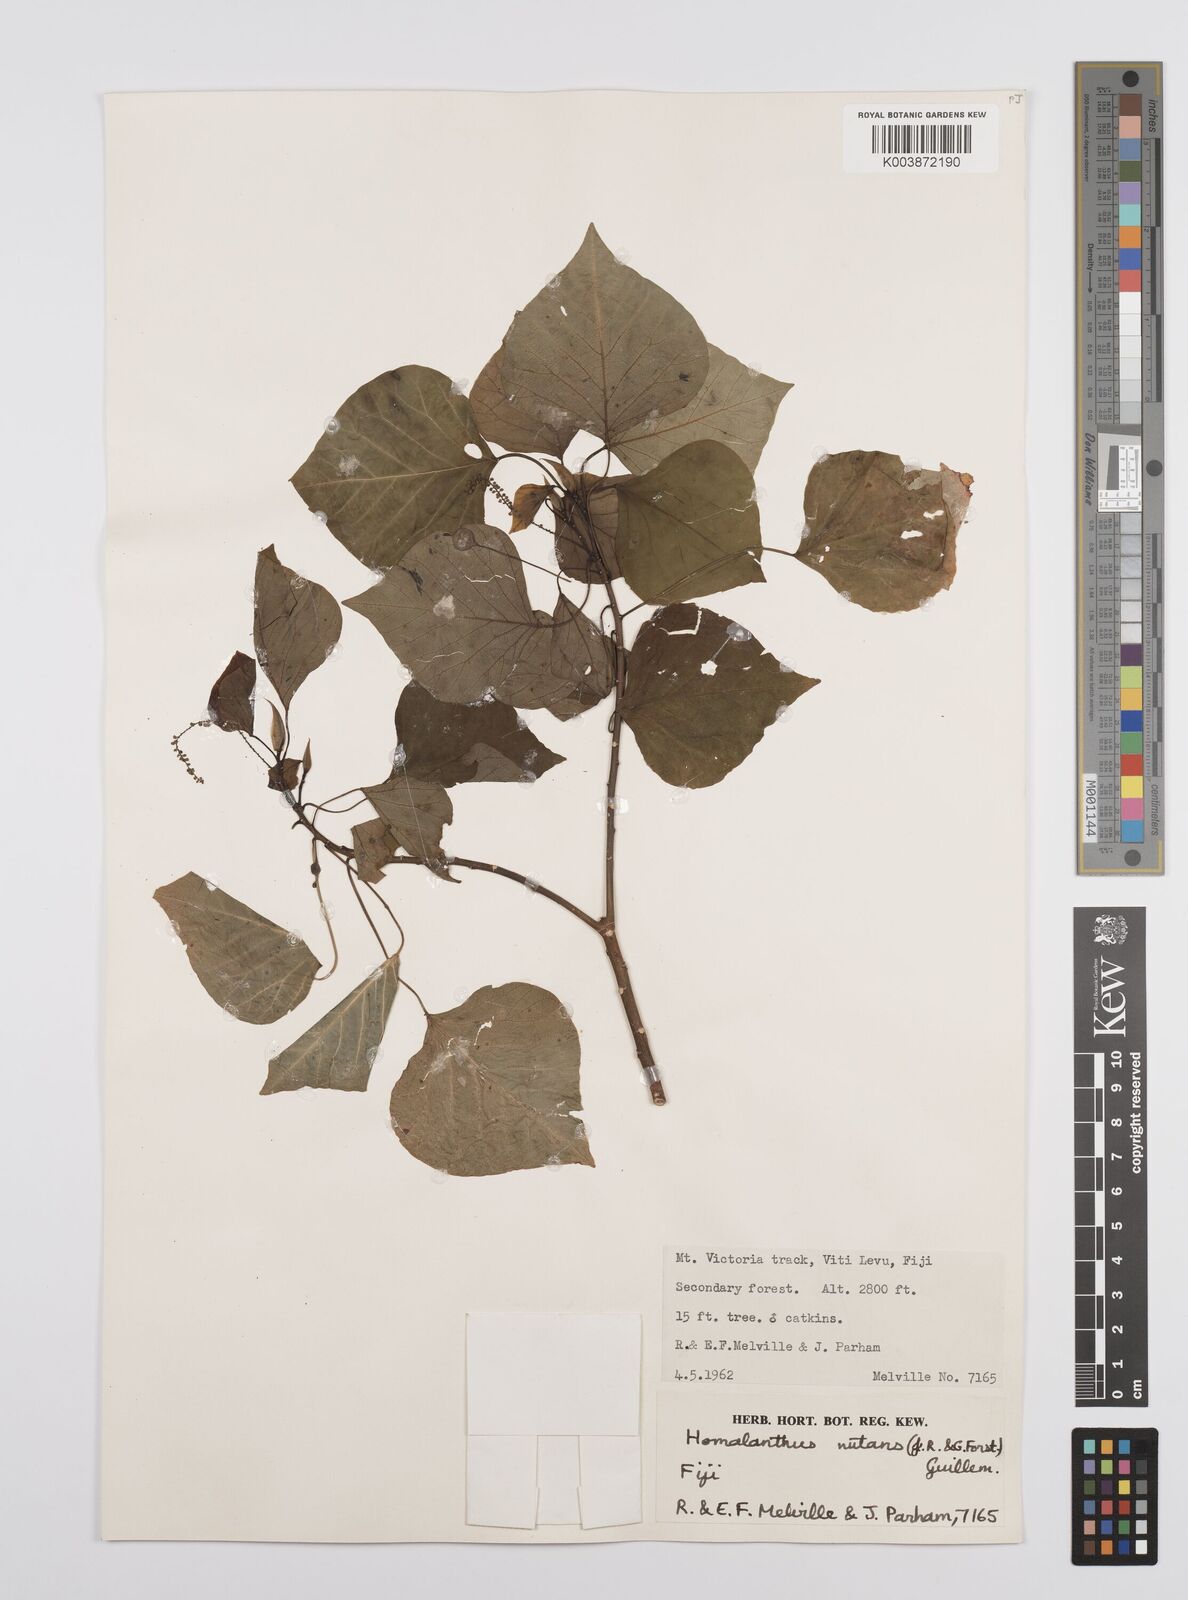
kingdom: Plantae
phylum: Tracheophyta
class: Magnoliopsida
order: Malpighiales
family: Euphorbiaceae
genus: Homalanthus
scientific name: Homalanthus nutans
